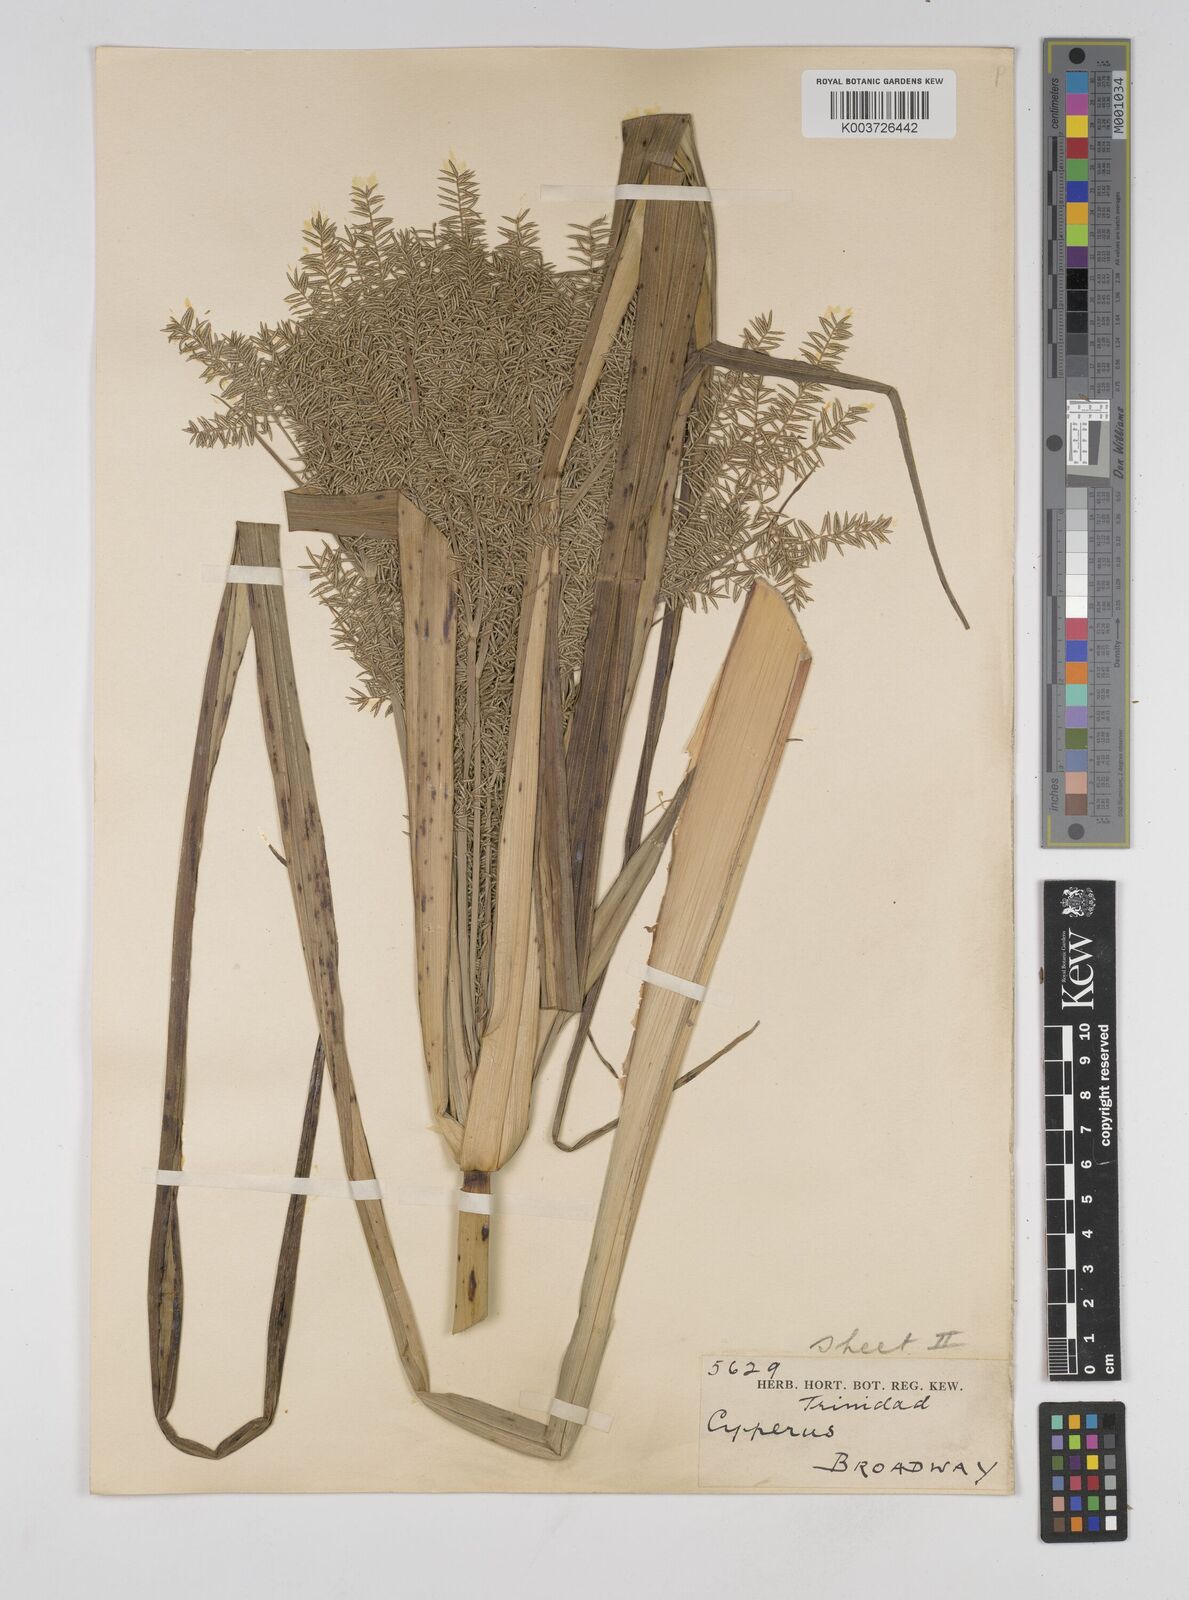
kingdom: Plantae
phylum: Tracheophyta
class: Liliopsida
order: Poales
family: Cyperaceae
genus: Cyperus
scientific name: Cyperus digitatus
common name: Finger flatsedge
